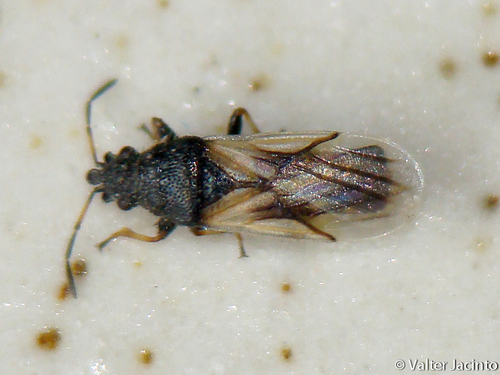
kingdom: Animalia
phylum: Arthropoda
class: Insecta
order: Hemiptera
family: Oxycarenidae
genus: Metopoplax
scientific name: Metopoplax ditomoides
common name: Seed bug
